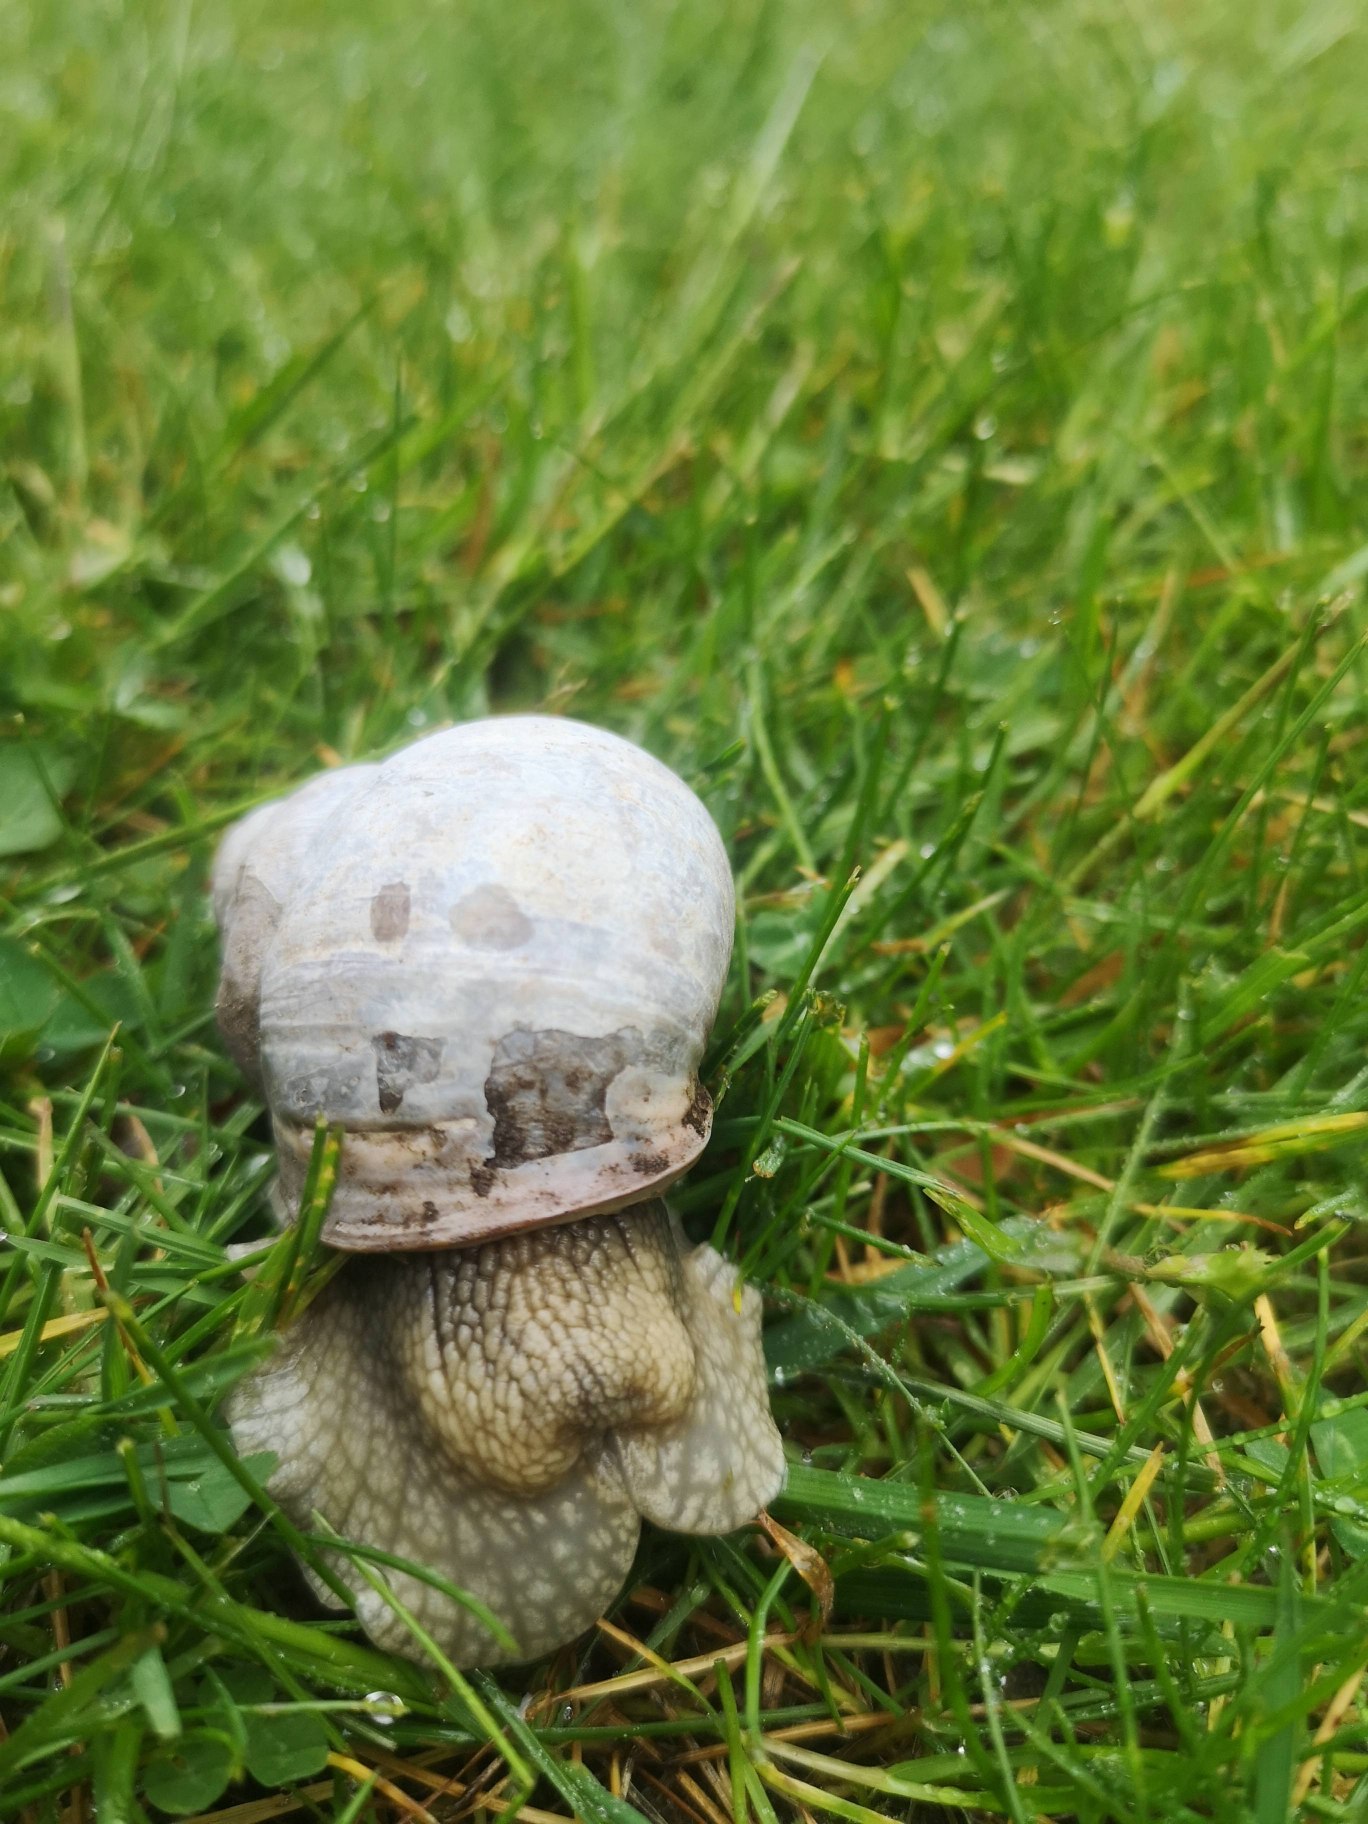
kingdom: Animalia
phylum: Mollusca
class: Gastropoda
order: Stylommatophora
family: Helicidae
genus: Helix
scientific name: Helix pomatia
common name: Vinbjergsnegl
